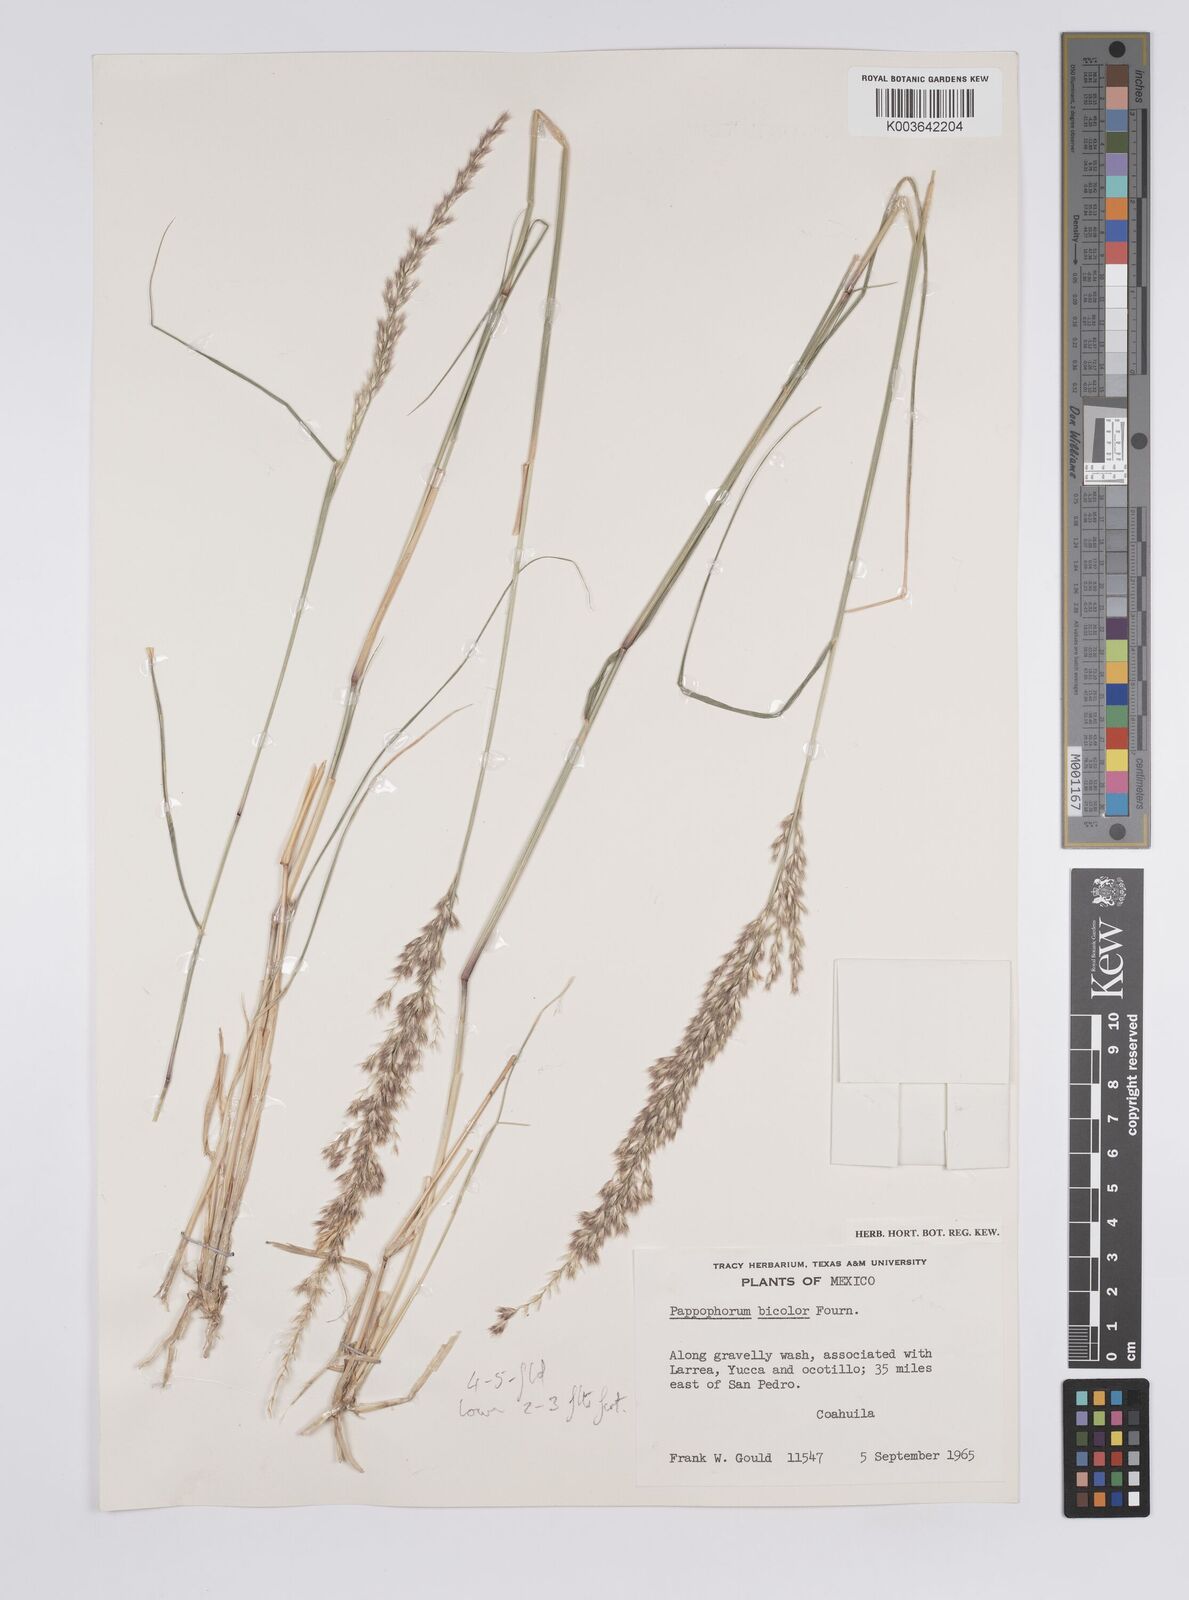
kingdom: Plantae
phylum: Tracheophyta
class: Liliopsida
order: Poales
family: Poaceae
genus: Pappophorum
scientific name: Pappophorum bicolor
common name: Pink pappus grass
